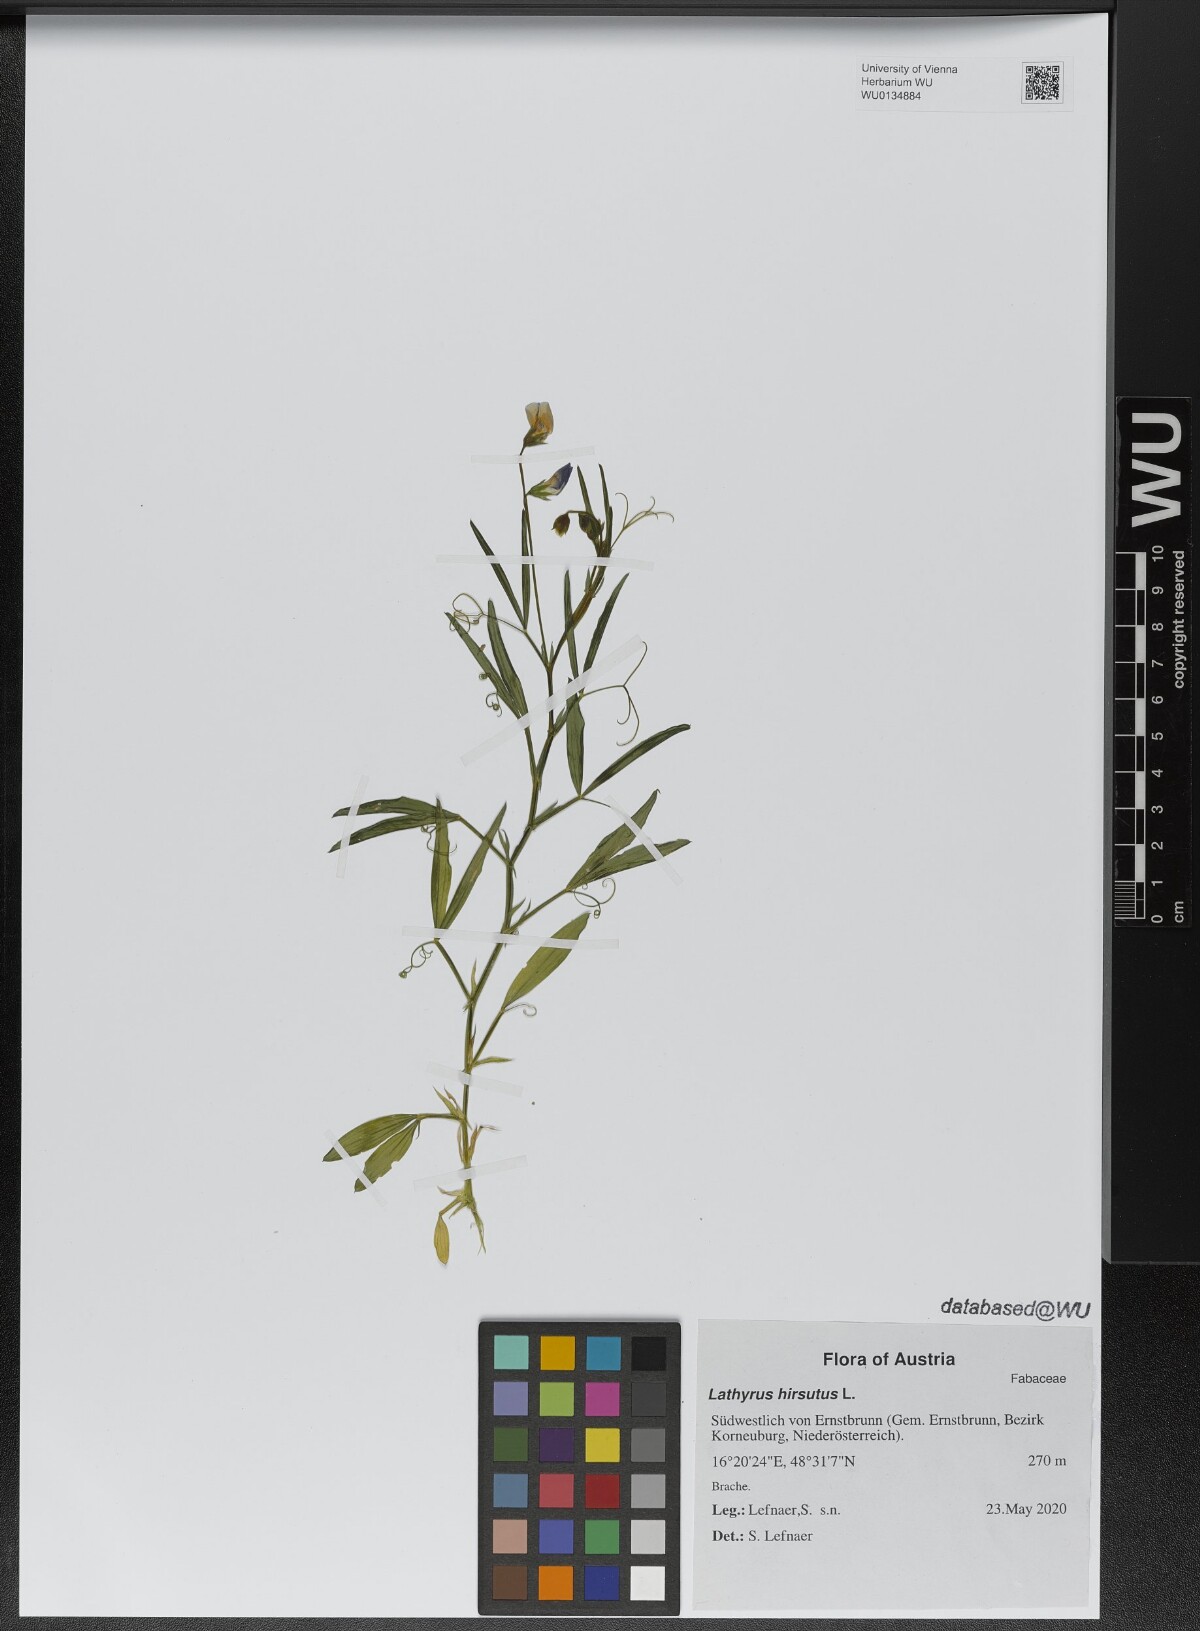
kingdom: Plantae
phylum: Tracheophyta
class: Magnoliopsida
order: Fabales
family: Fabaceae
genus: Lathyrus
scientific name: Lathyrus hirsutus
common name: Hairy vetchling
